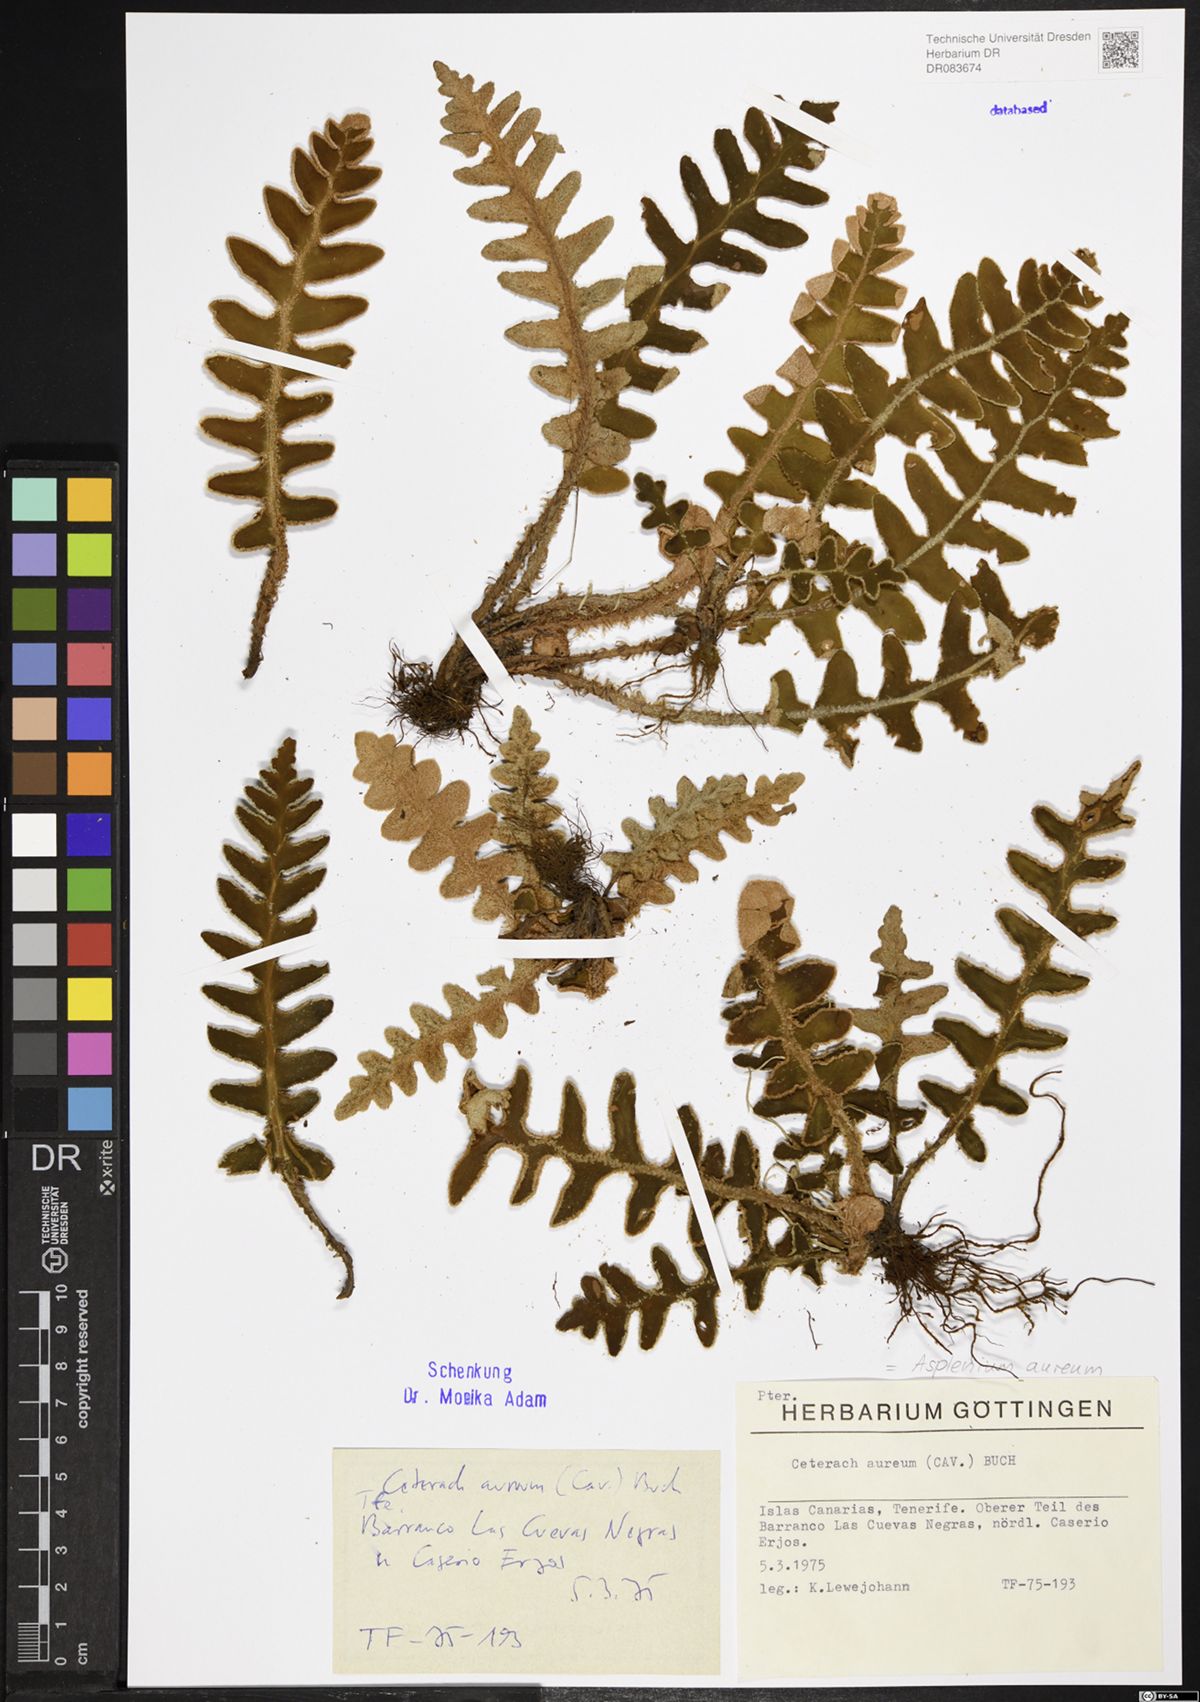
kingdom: Plantae
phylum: Tracheophyta
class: Polypodiopsida
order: Polypodiales
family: Aspleniaceae
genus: Asplenium
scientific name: Asplenium aureum
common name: Golden rustyback fern
